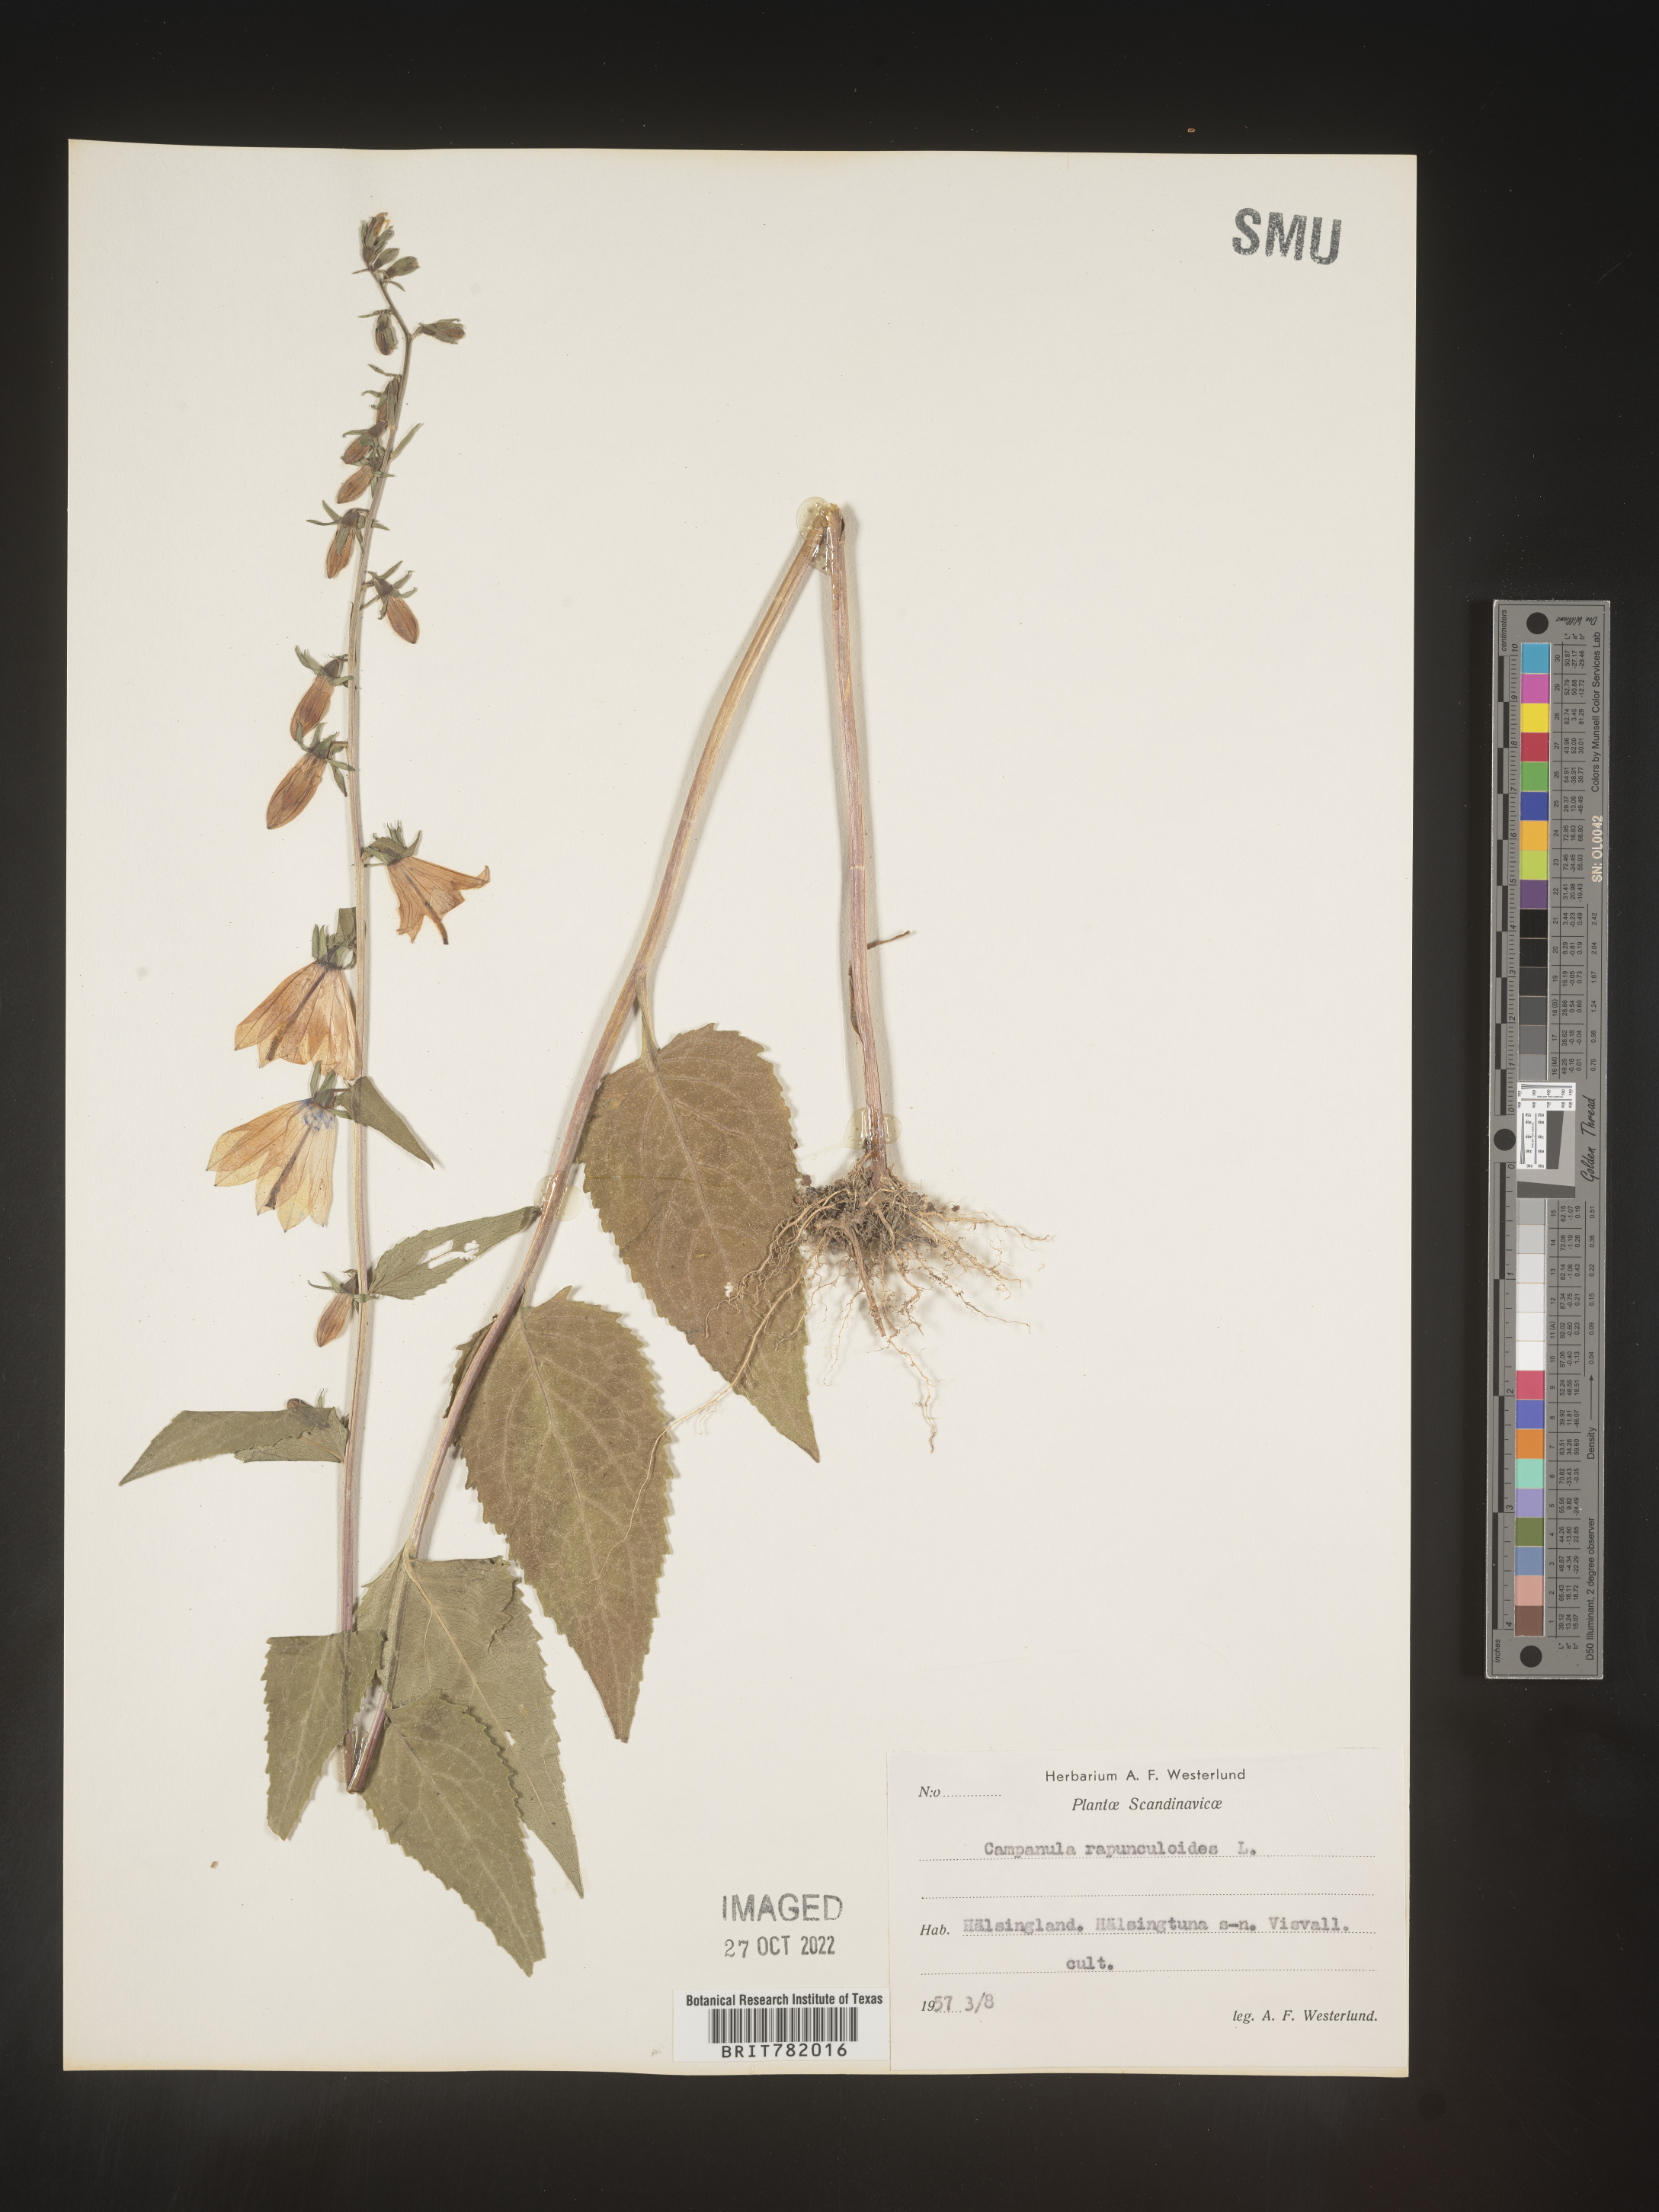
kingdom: Plantae
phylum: Tracheophyta
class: Magnoliopsida
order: Asterales
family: Campanulaceae
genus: Campanula
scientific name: Campanula
